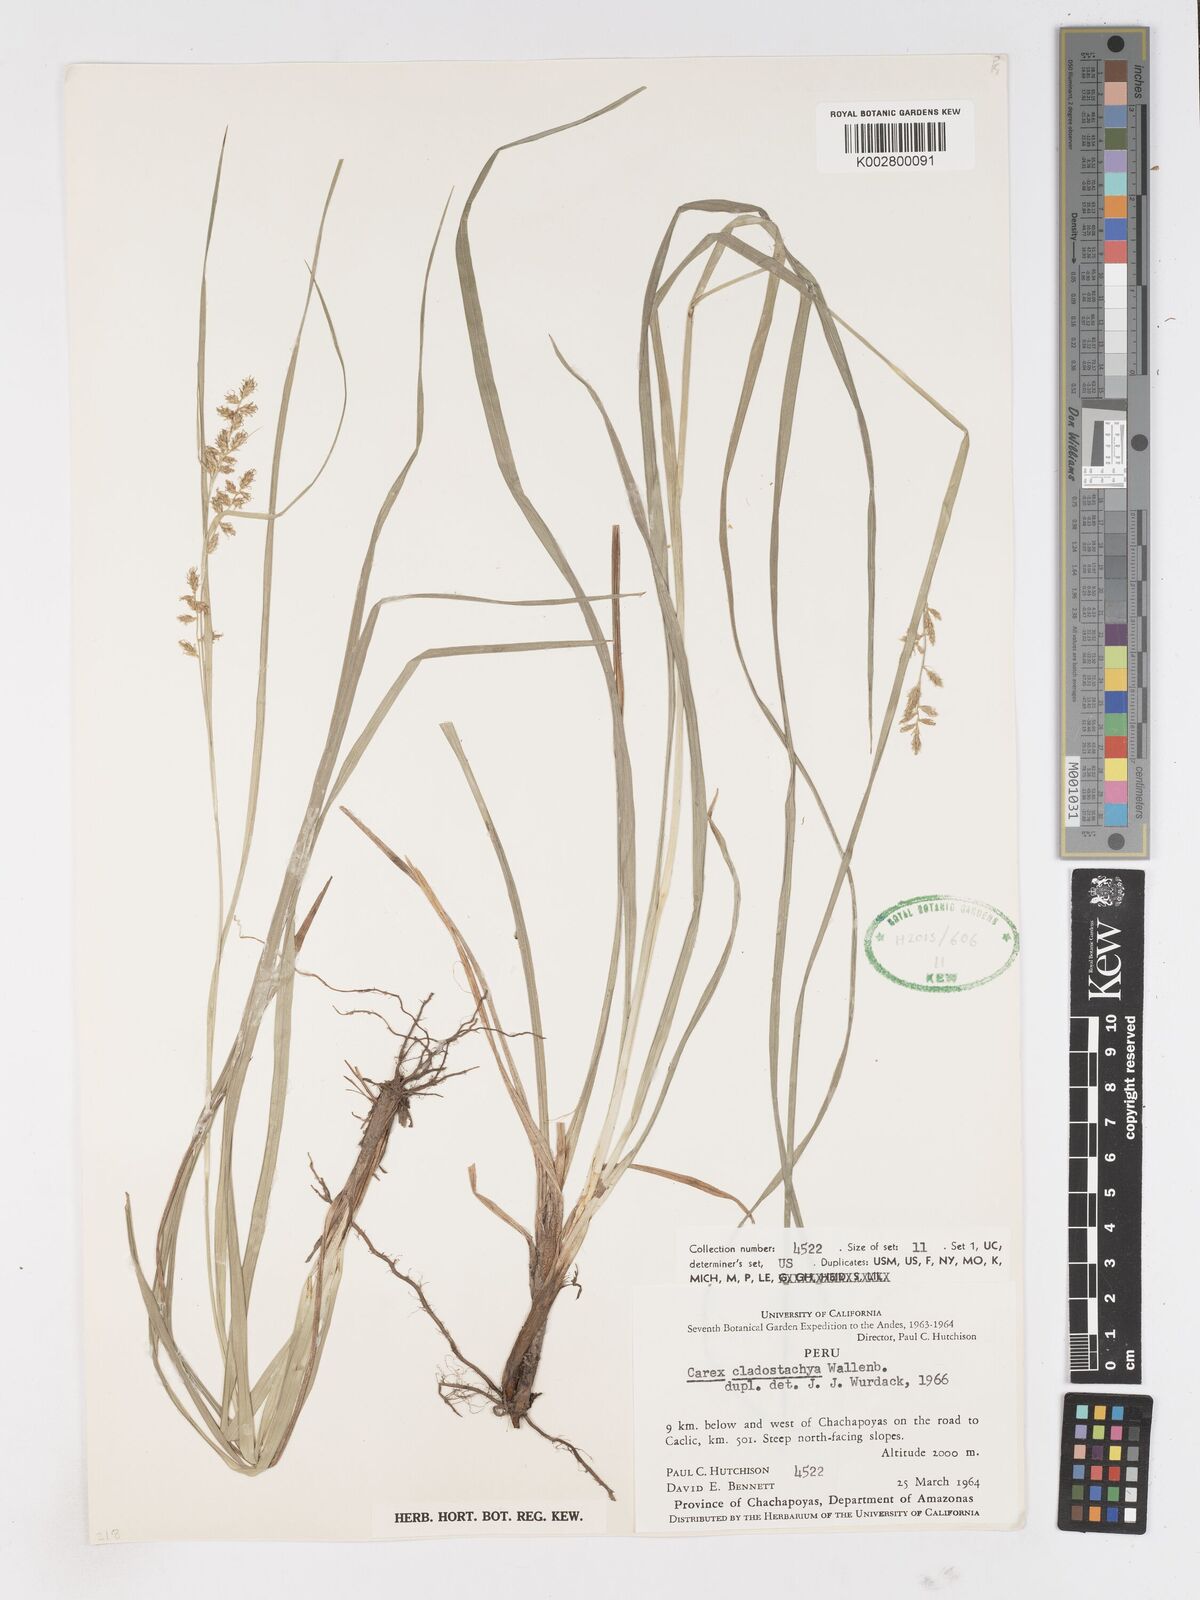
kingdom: Plantae
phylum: Tracheophyta
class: Liliopsida
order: Poales
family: Cyperaceae
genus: Carex
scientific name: Carex polystachya
